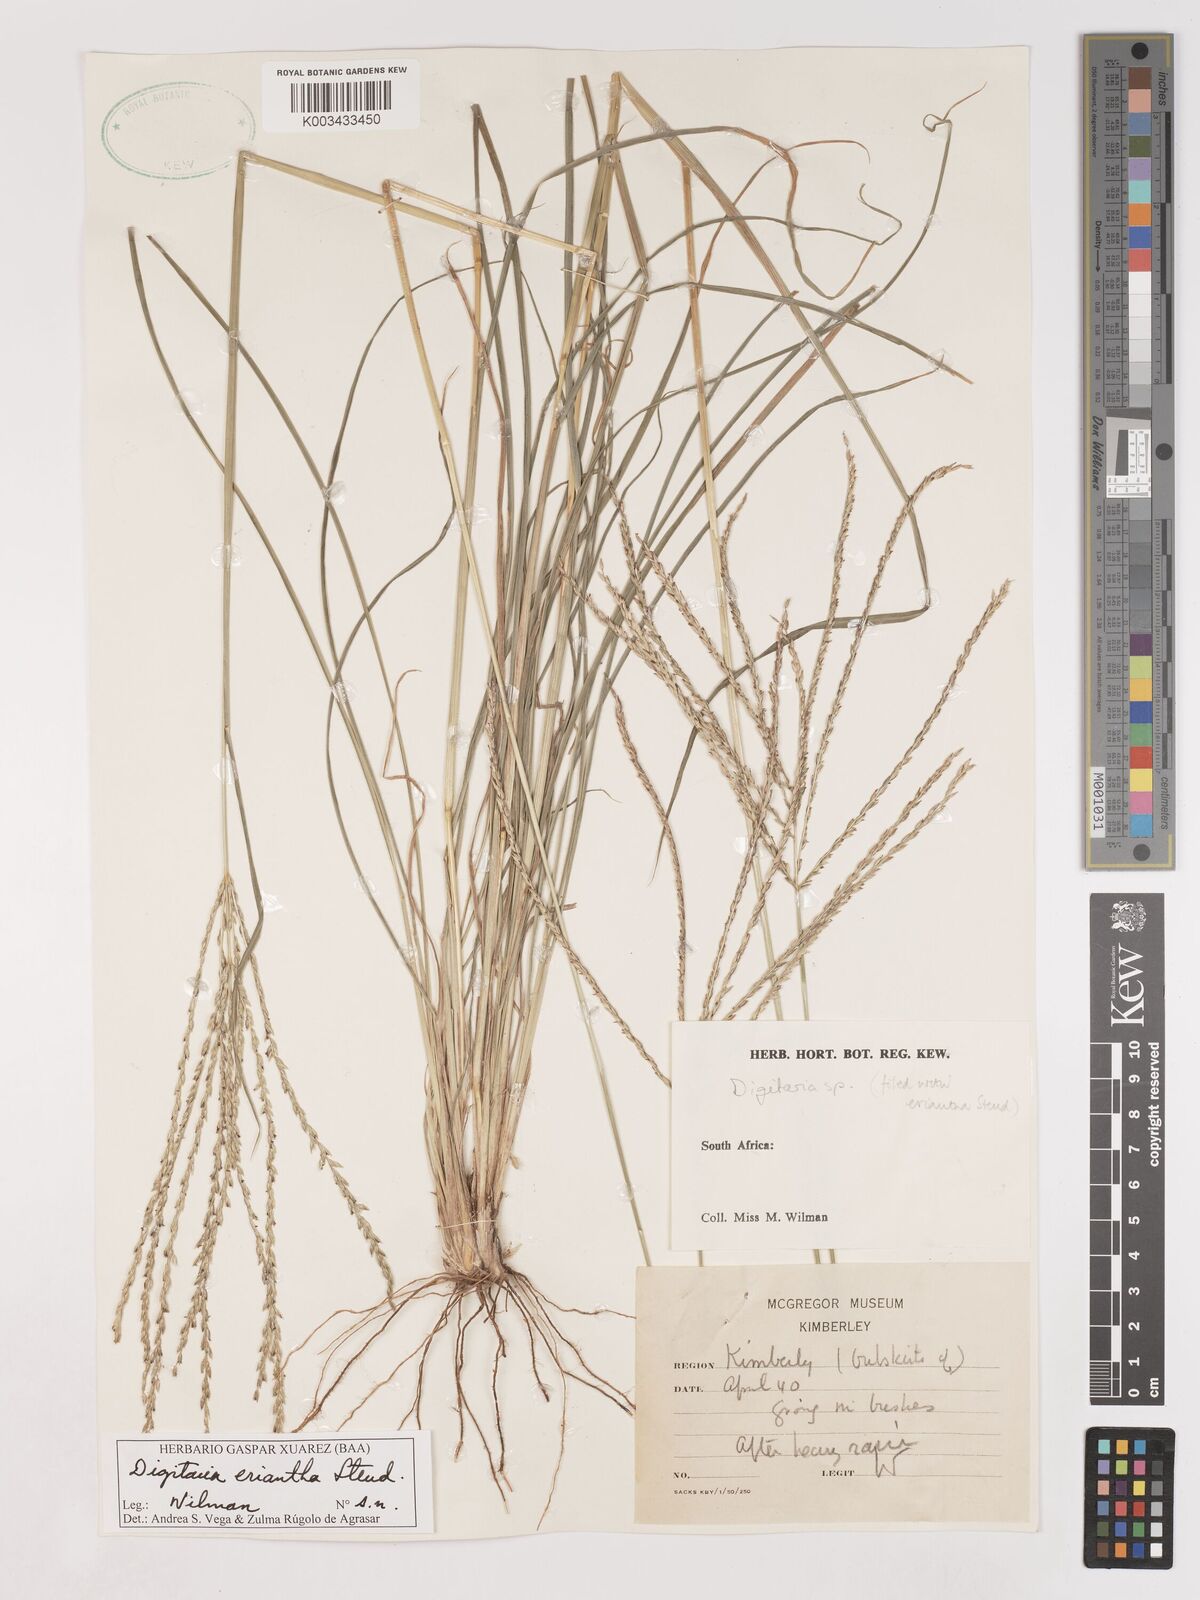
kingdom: Plantae
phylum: Tracheophyta
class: Liliopsida
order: Poales
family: Poaceae
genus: Digitaria
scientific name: Digitaria eriantha
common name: Digitgrass
